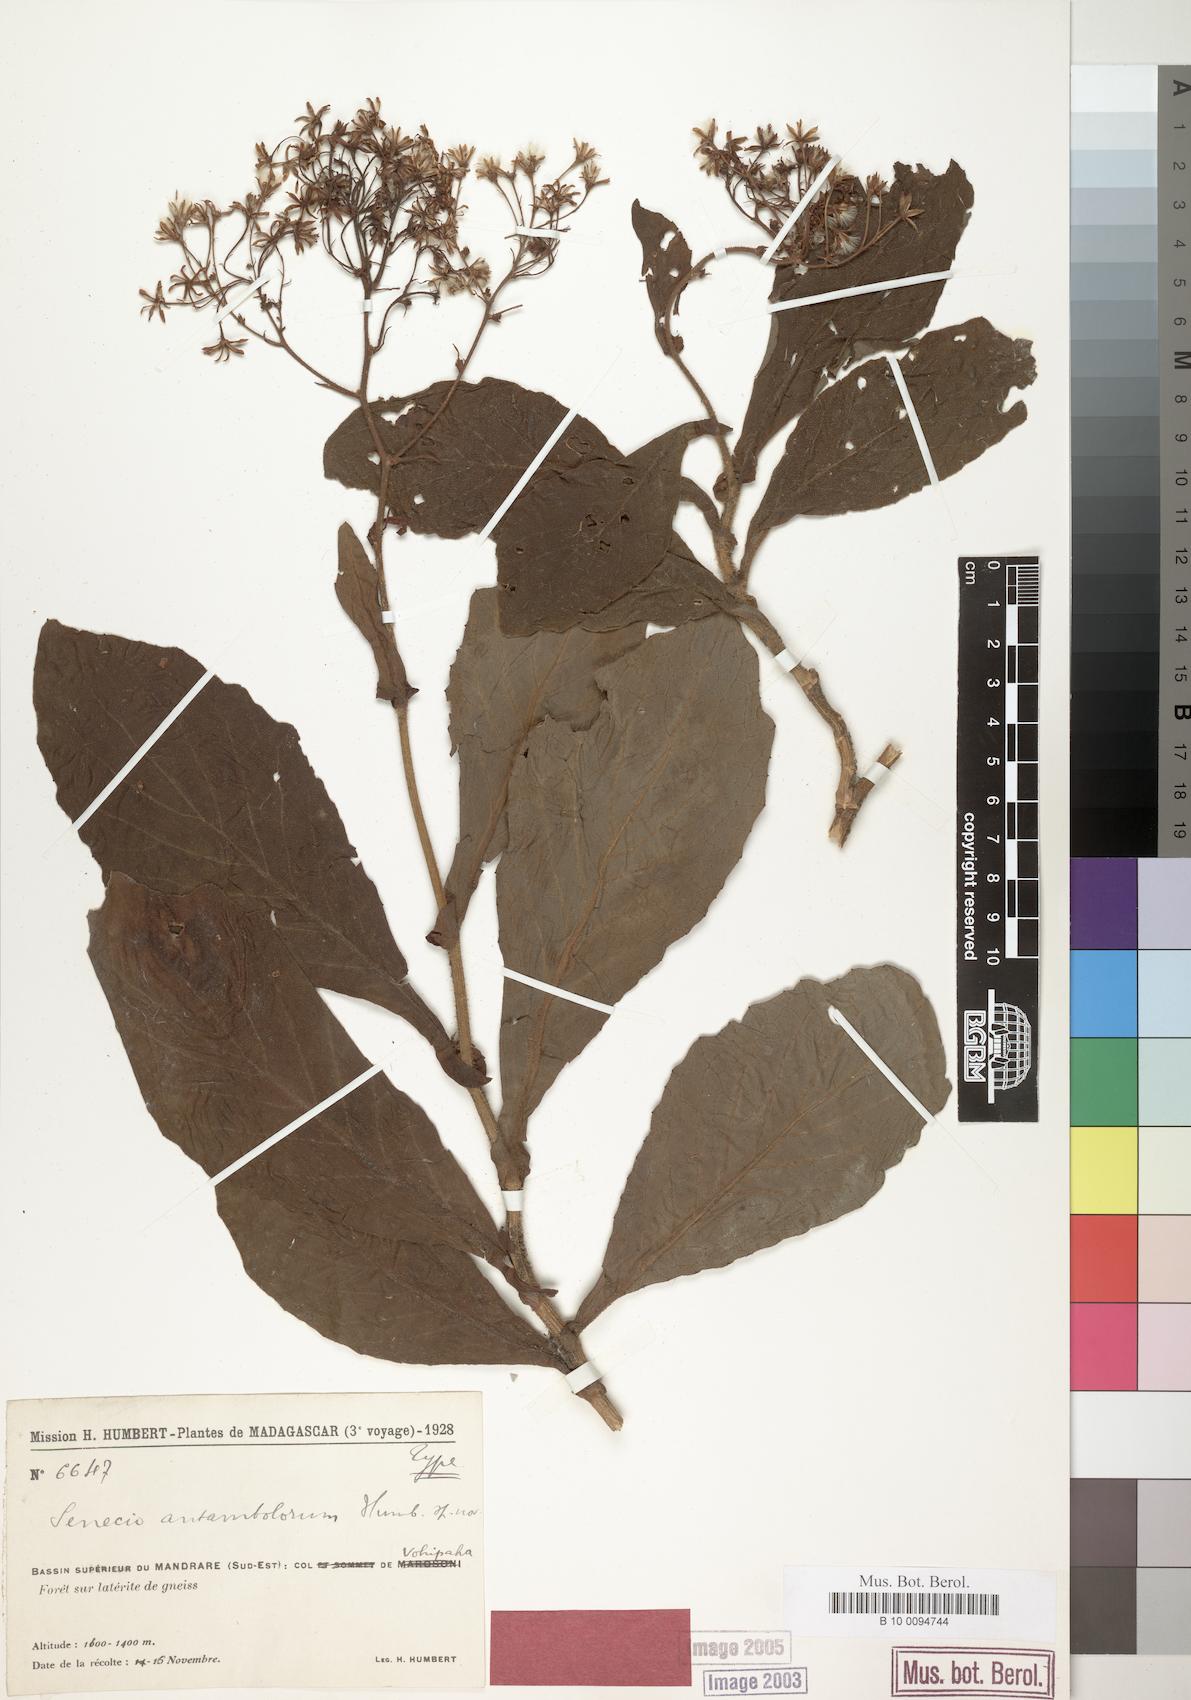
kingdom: Plantae
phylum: Tracheophyta
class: Magnoliopsida
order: Asterales
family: Asteraceae
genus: Senecio
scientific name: Senecio antambolorum
